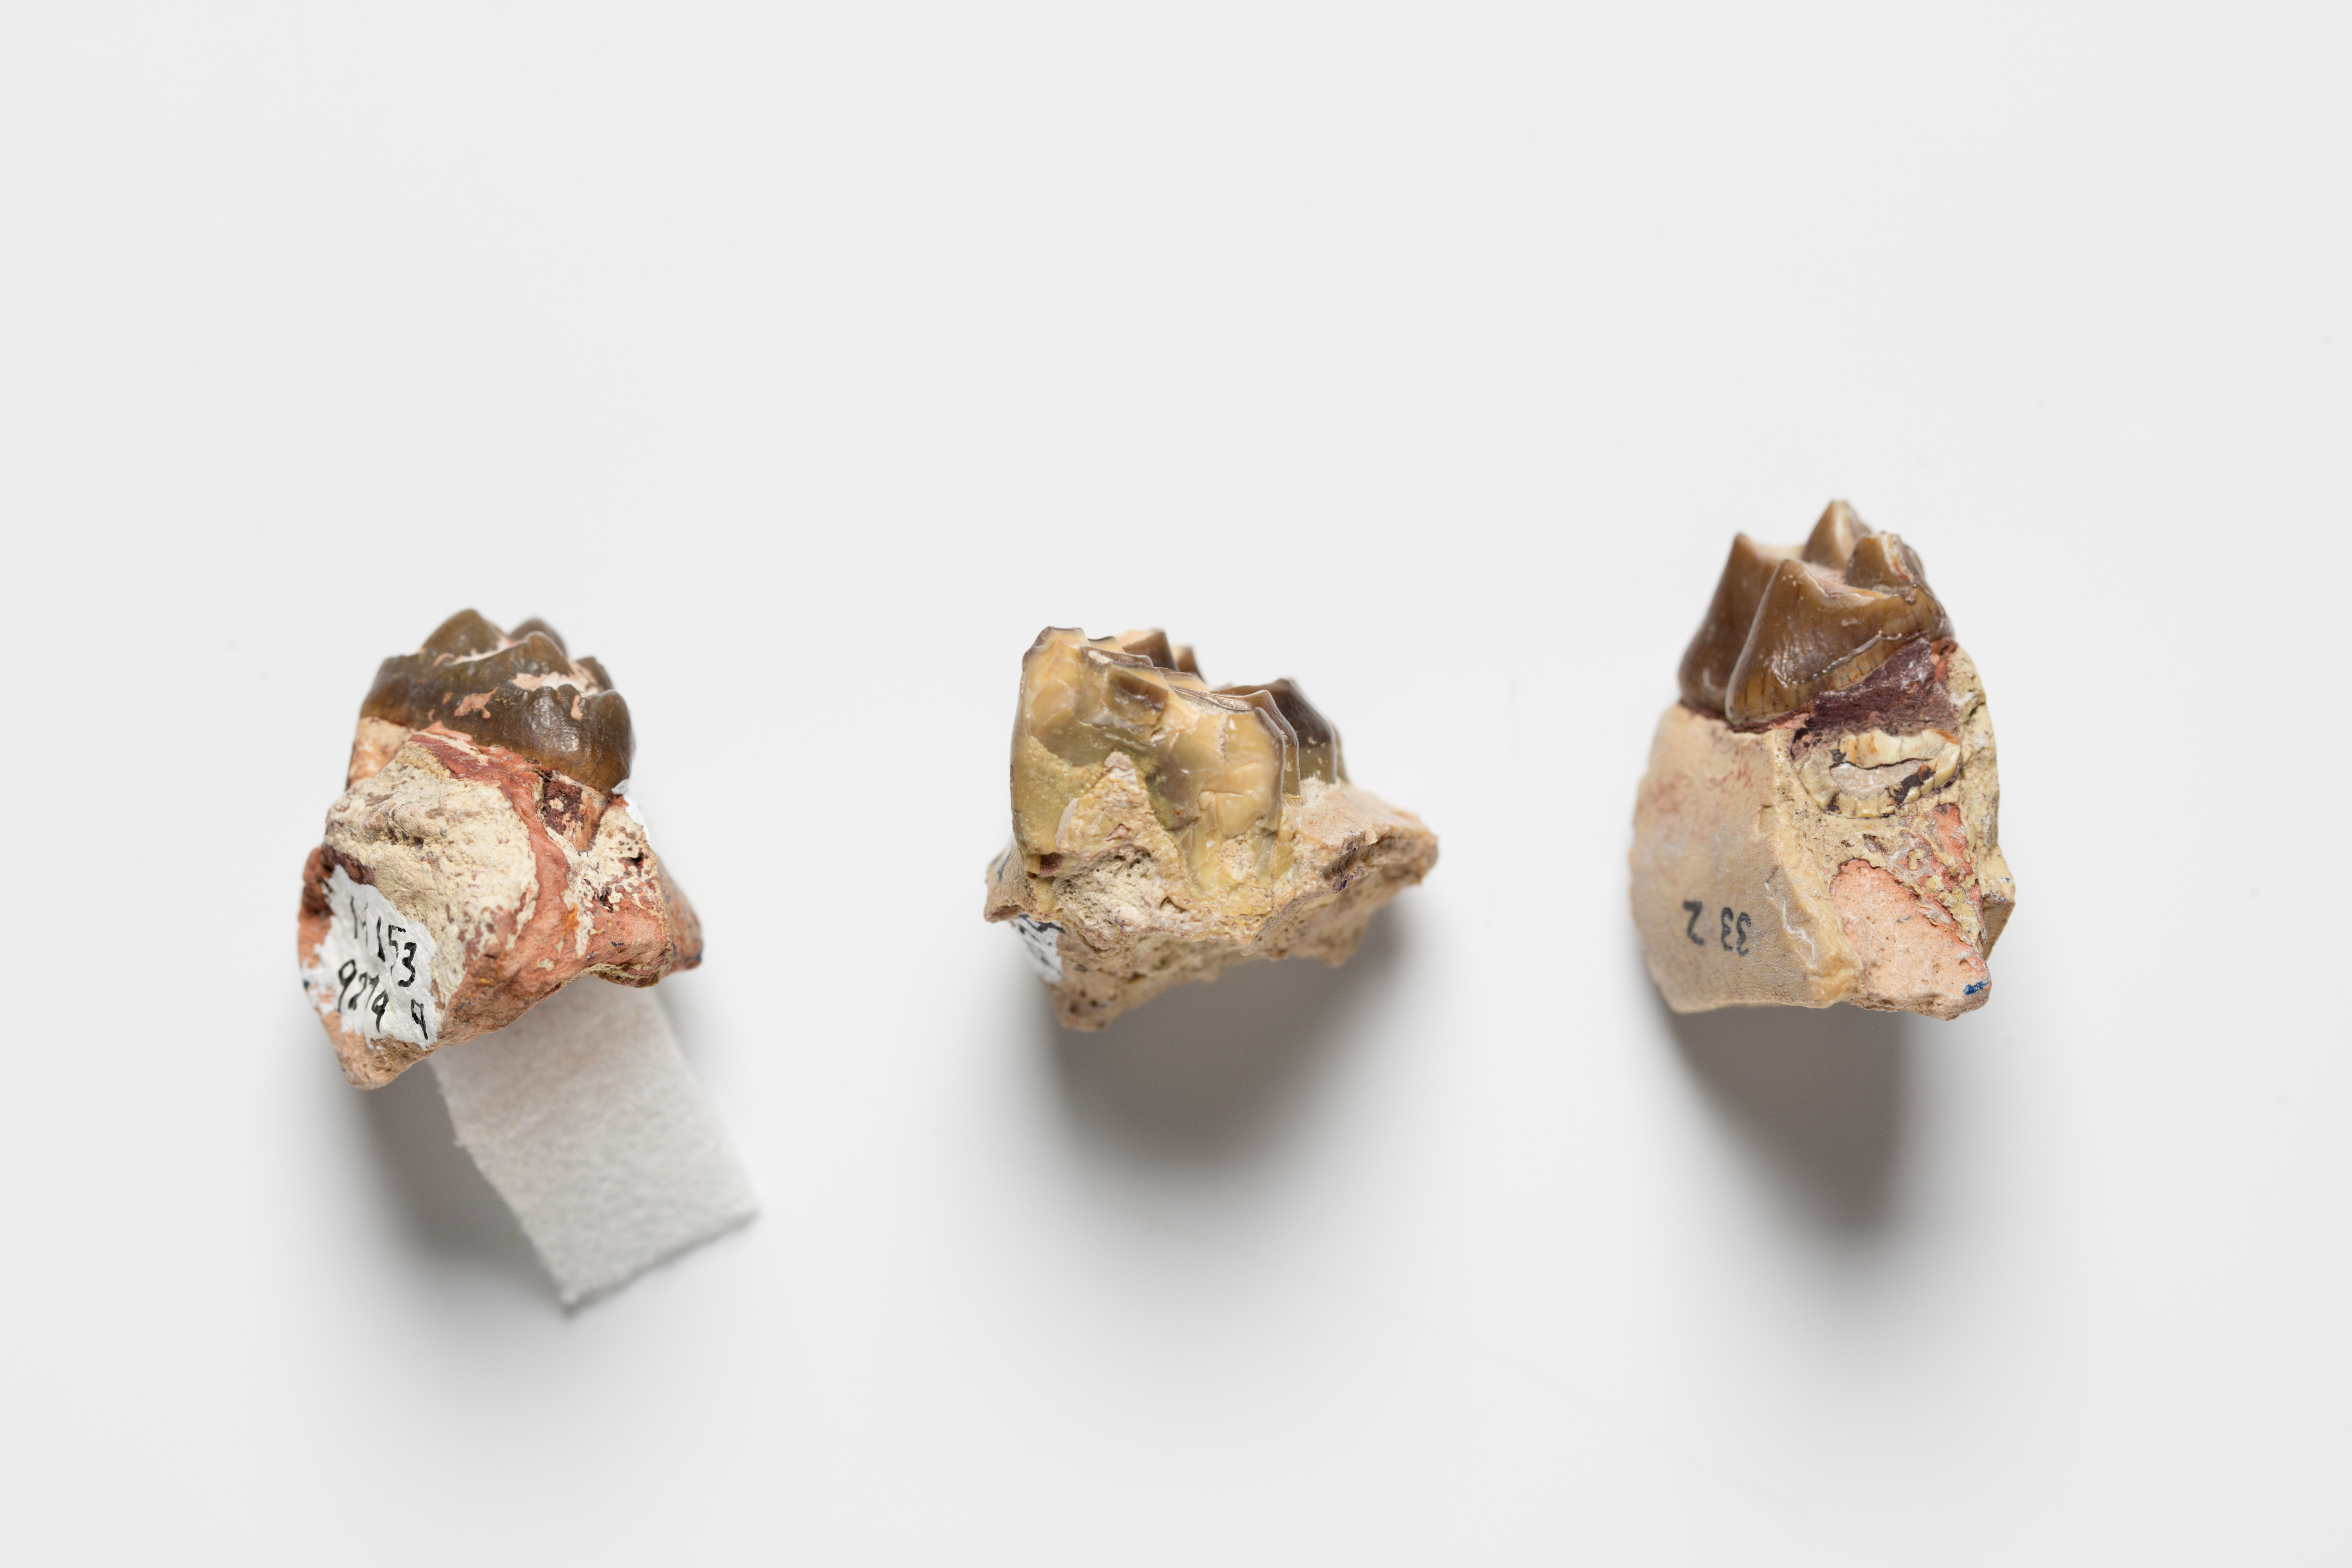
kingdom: Animalia
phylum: Chordata
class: Mammalia
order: Artiodactyla
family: Merycoidodontidae
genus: Merycoidodon
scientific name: Merycoidodon culbertsonii
